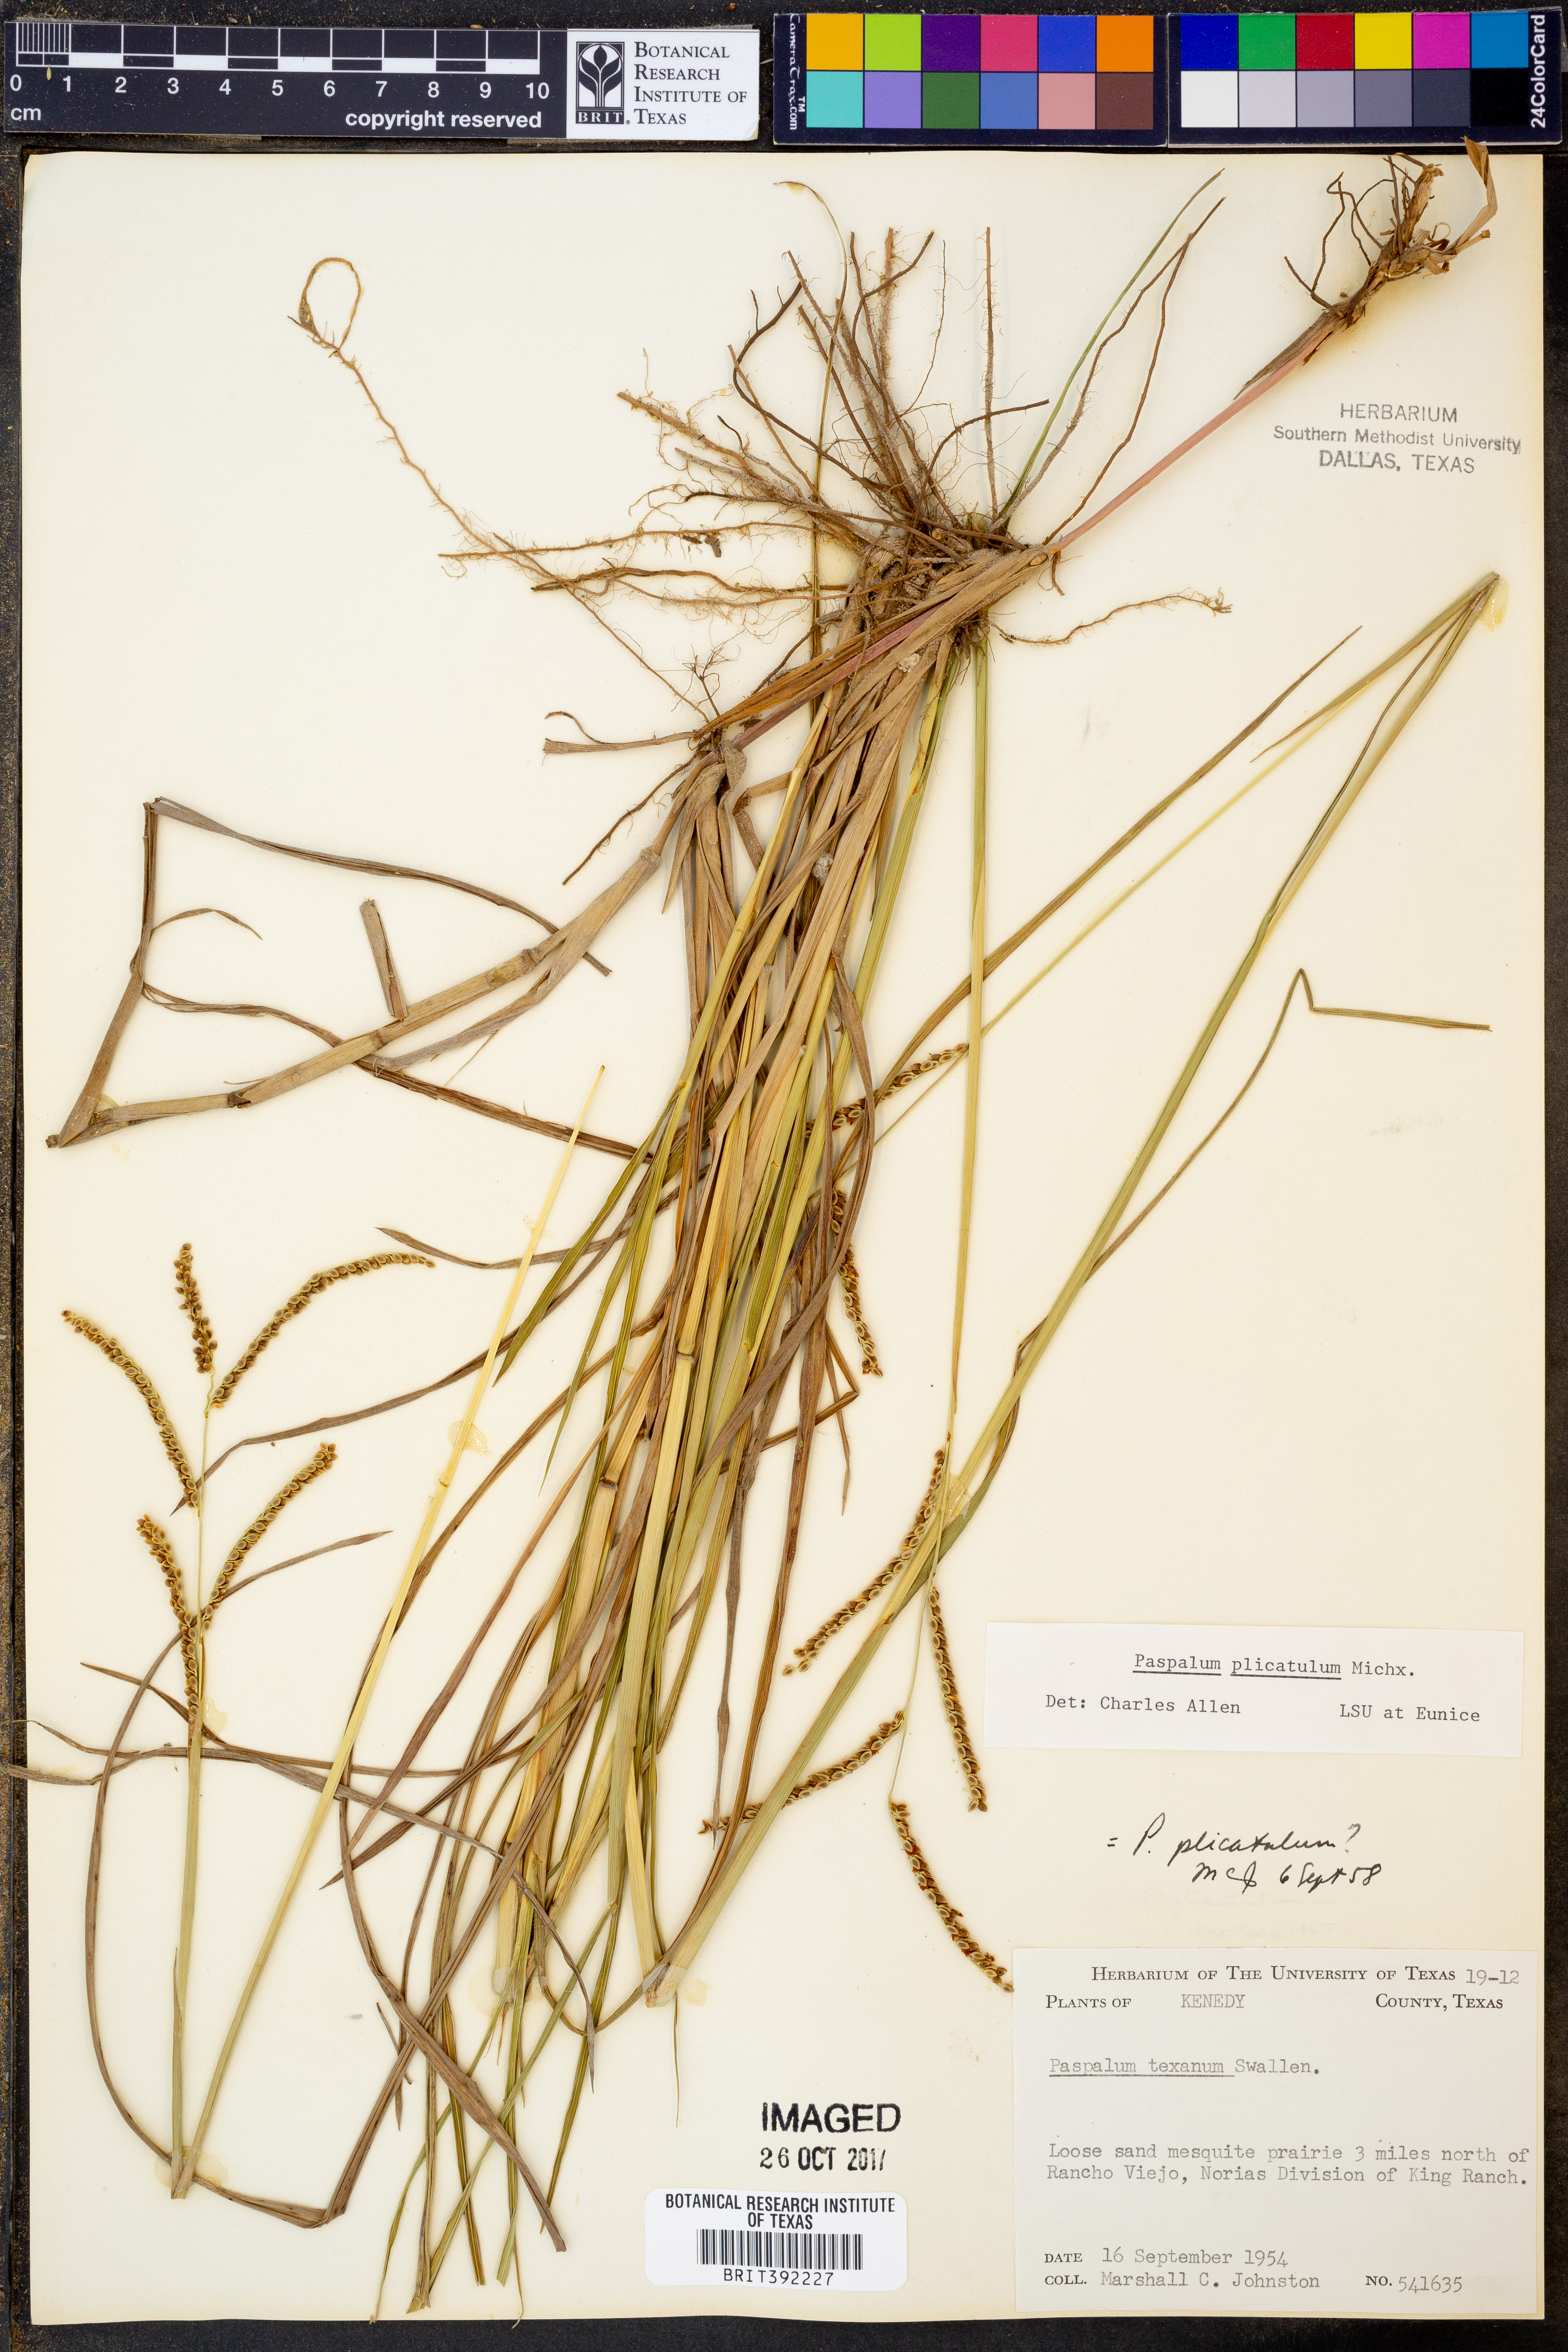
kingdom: Plantae
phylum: Tracheophyta
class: Liliopsida
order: Poales
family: Poaceae
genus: Paspalum
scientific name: Paspalum plicatulum
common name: Top paspalum
